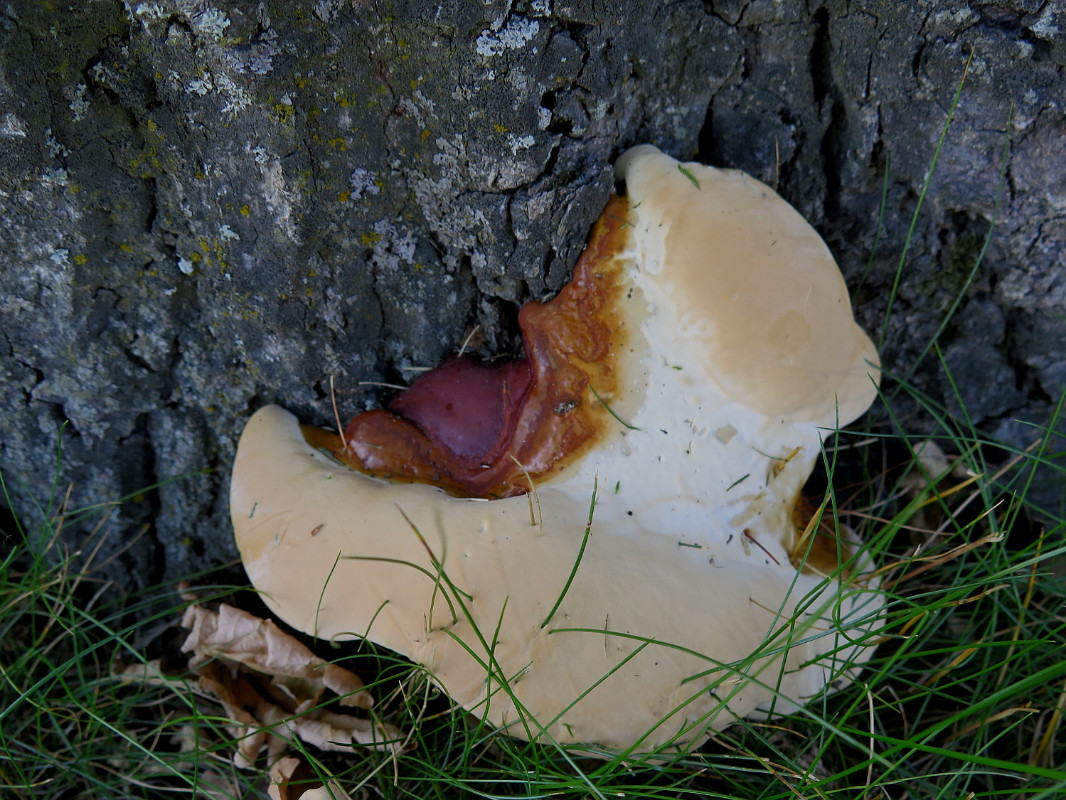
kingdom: Fungi
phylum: Basidiomycota
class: Agaricomycetes
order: Polyporales
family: Polyporaceae
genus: Ganoderma
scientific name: Ganoderma resinaceum
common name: gyldenbrun lakporesvamp
